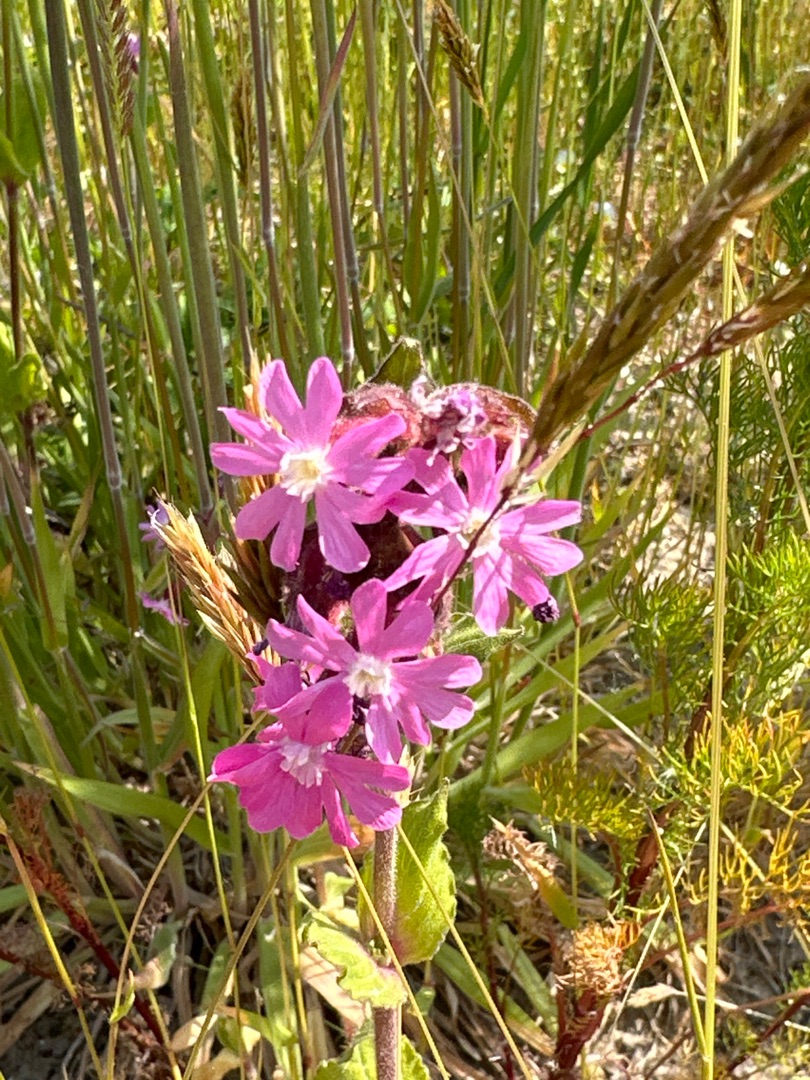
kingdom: Plantae
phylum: Tracheophyta
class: Magnoliopsida
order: Caryophyllales
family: Caryophyllaceae
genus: Silene
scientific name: Silene dioica
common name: Dagpragtstjerne
